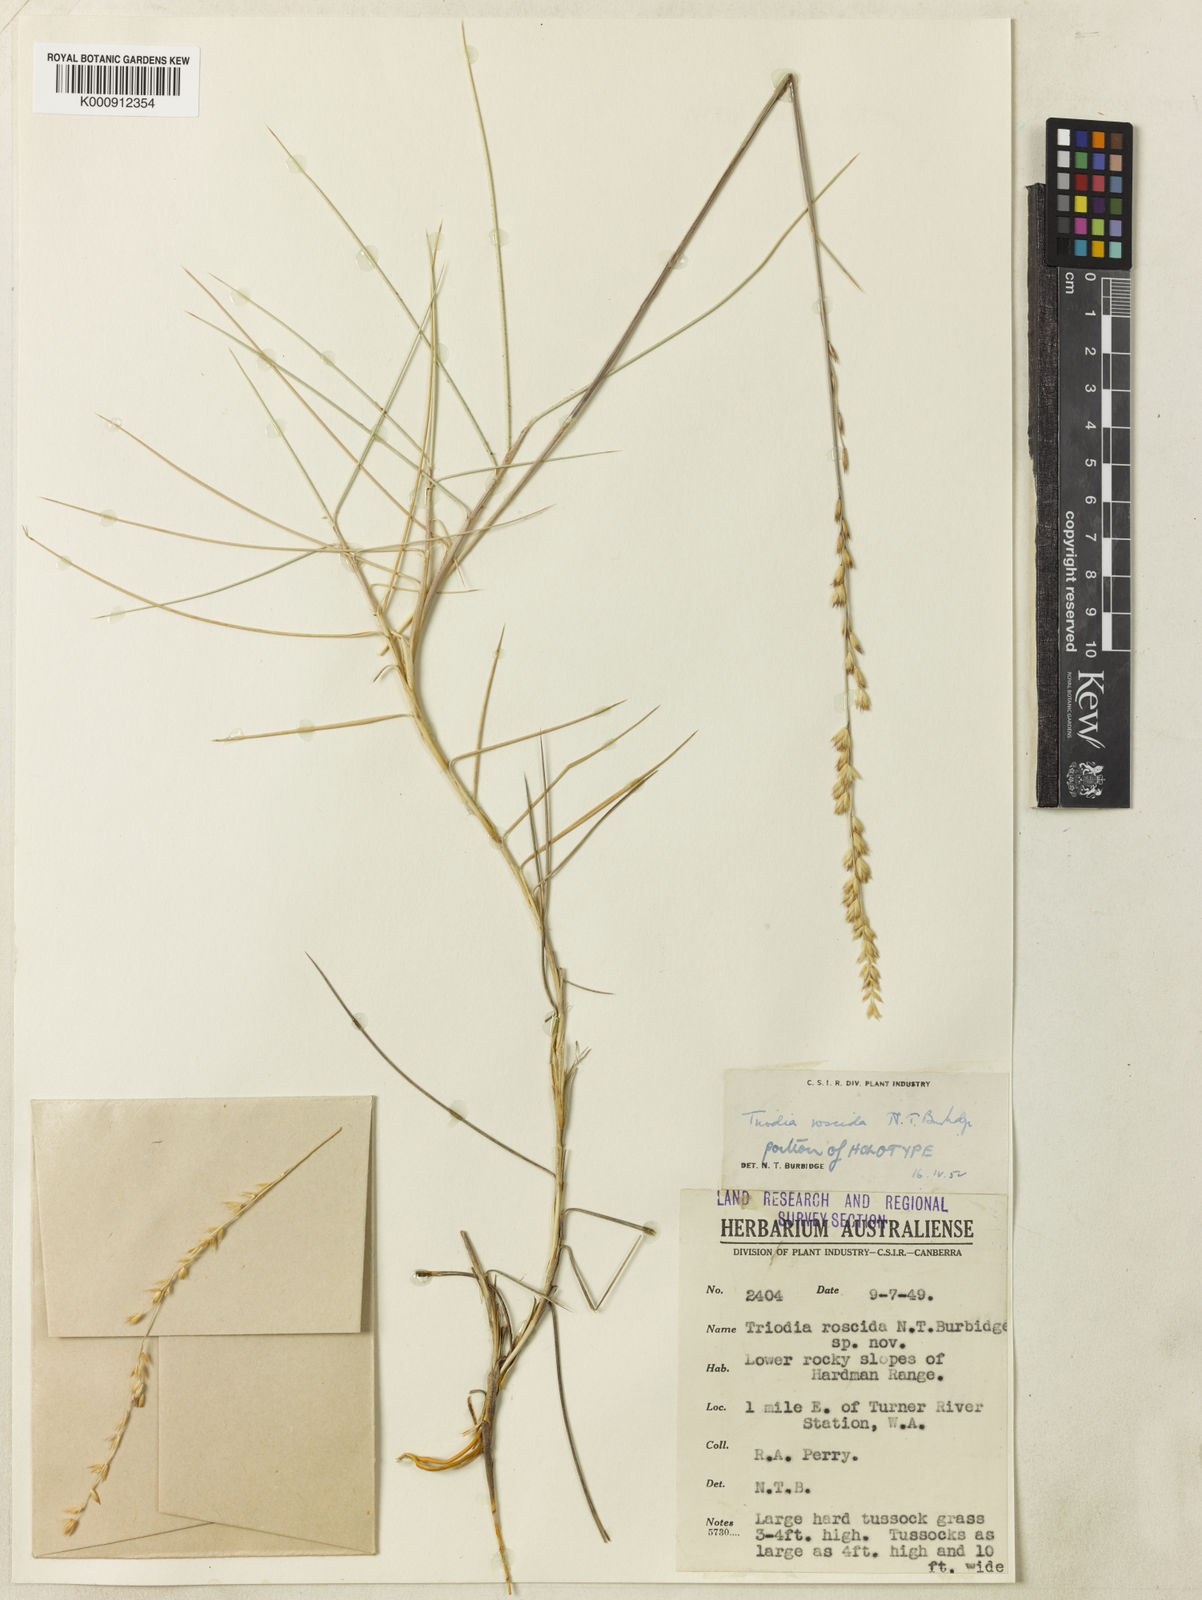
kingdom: Plantae
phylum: Tracheophyta
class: Liliopsida
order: Poales
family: Poaceae
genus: Triodia
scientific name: Triodia roscida
